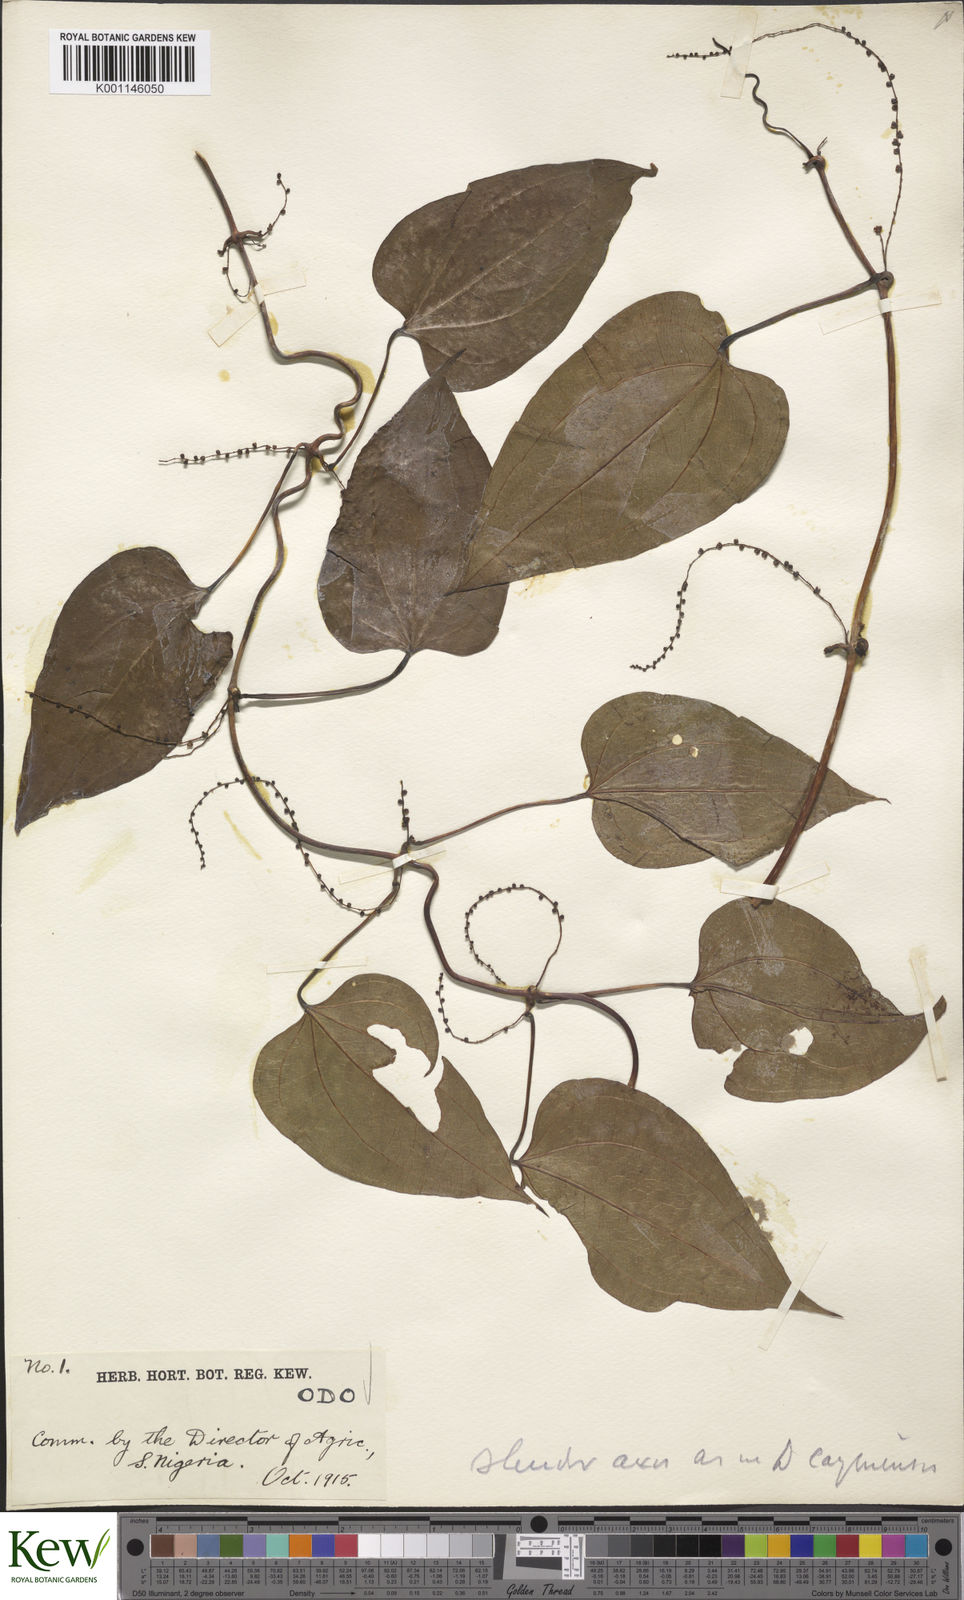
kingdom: Plantae
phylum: Tracheophyta
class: Liliopsida
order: Dioscoreales
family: Dioscoreaceae
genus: Dioscorea
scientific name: Dioscorea baya
